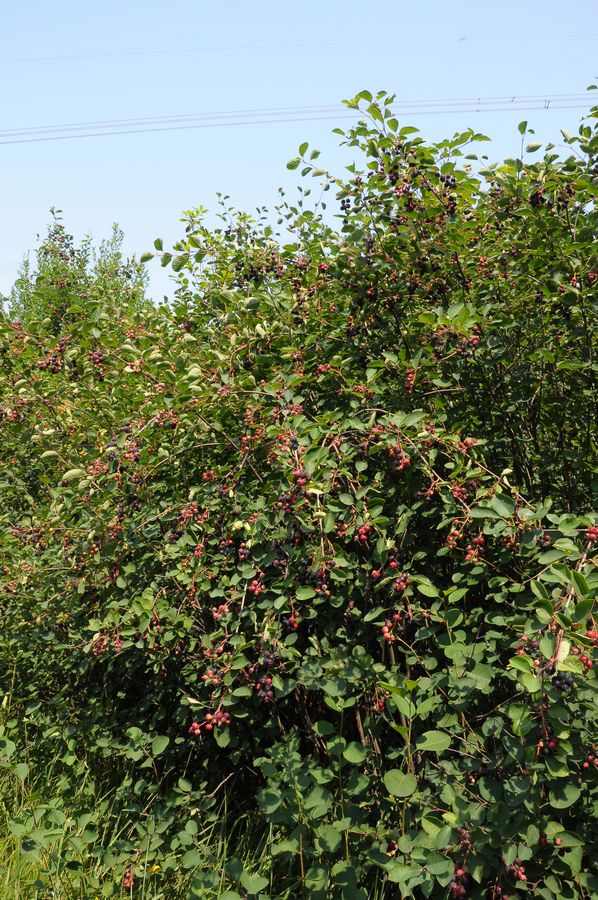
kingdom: Plantae
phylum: Tracheophyta
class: Magnoliopsida
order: Rosales
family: Rosaceae
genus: Amelanchier
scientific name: Amelanchier humilis
